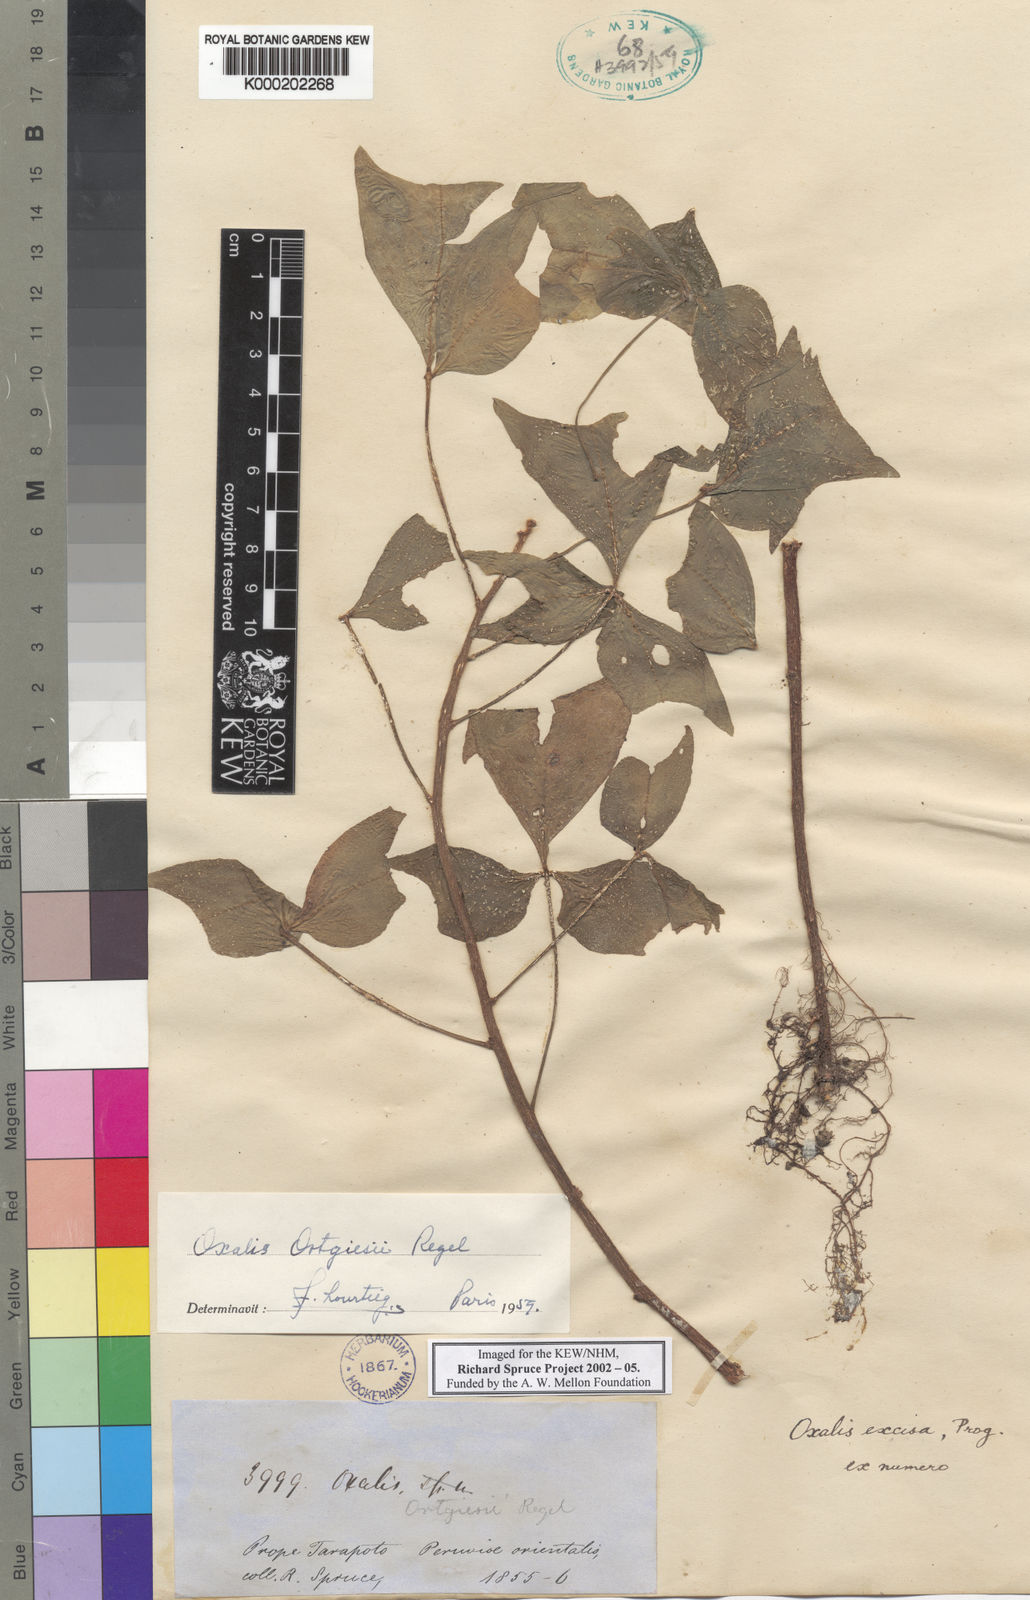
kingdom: Plantae
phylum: Tracheophyta
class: Magnoliopsida
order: Oxalidales
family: Oxalidaceae
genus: Oxalis
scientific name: Oxalis ortgiesii
